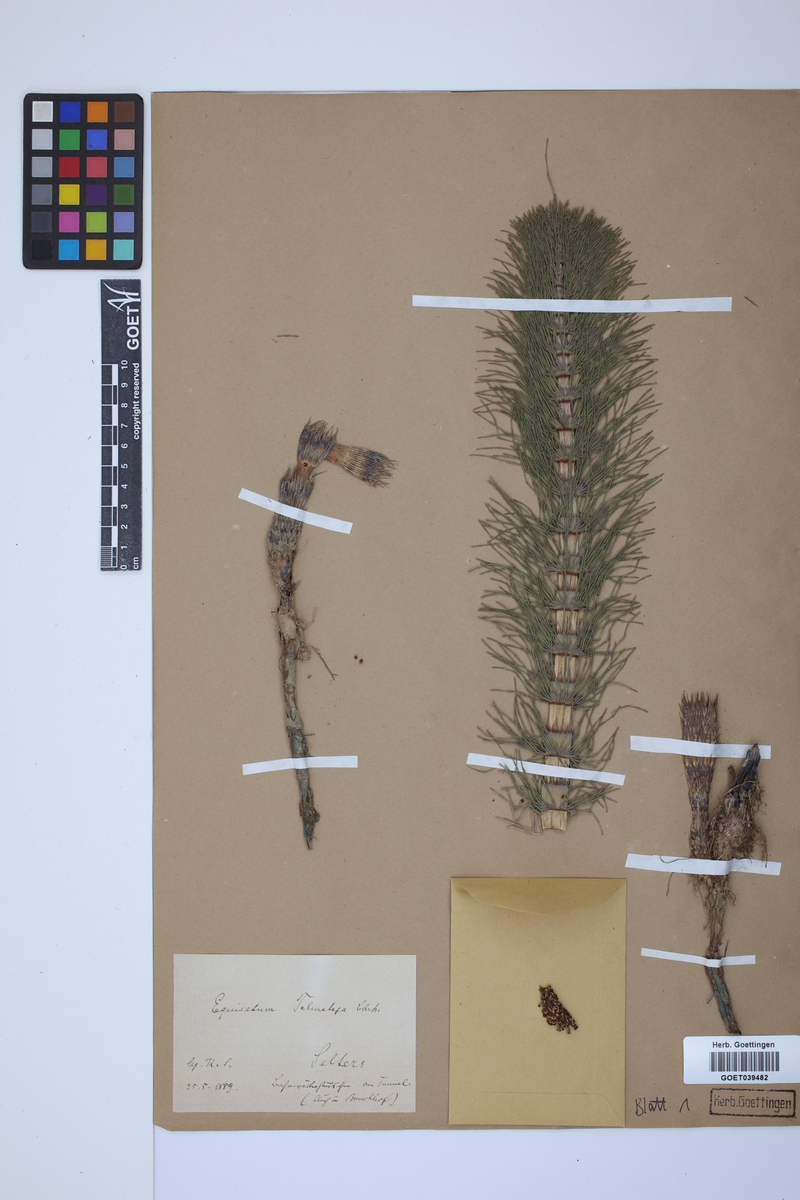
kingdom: Plantae
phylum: Tracheophyta
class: Polypodiopsida
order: Equisetales
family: Equisetaceae
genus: Equisetum
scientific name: Equisetum telmateia
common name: Great horsetail
